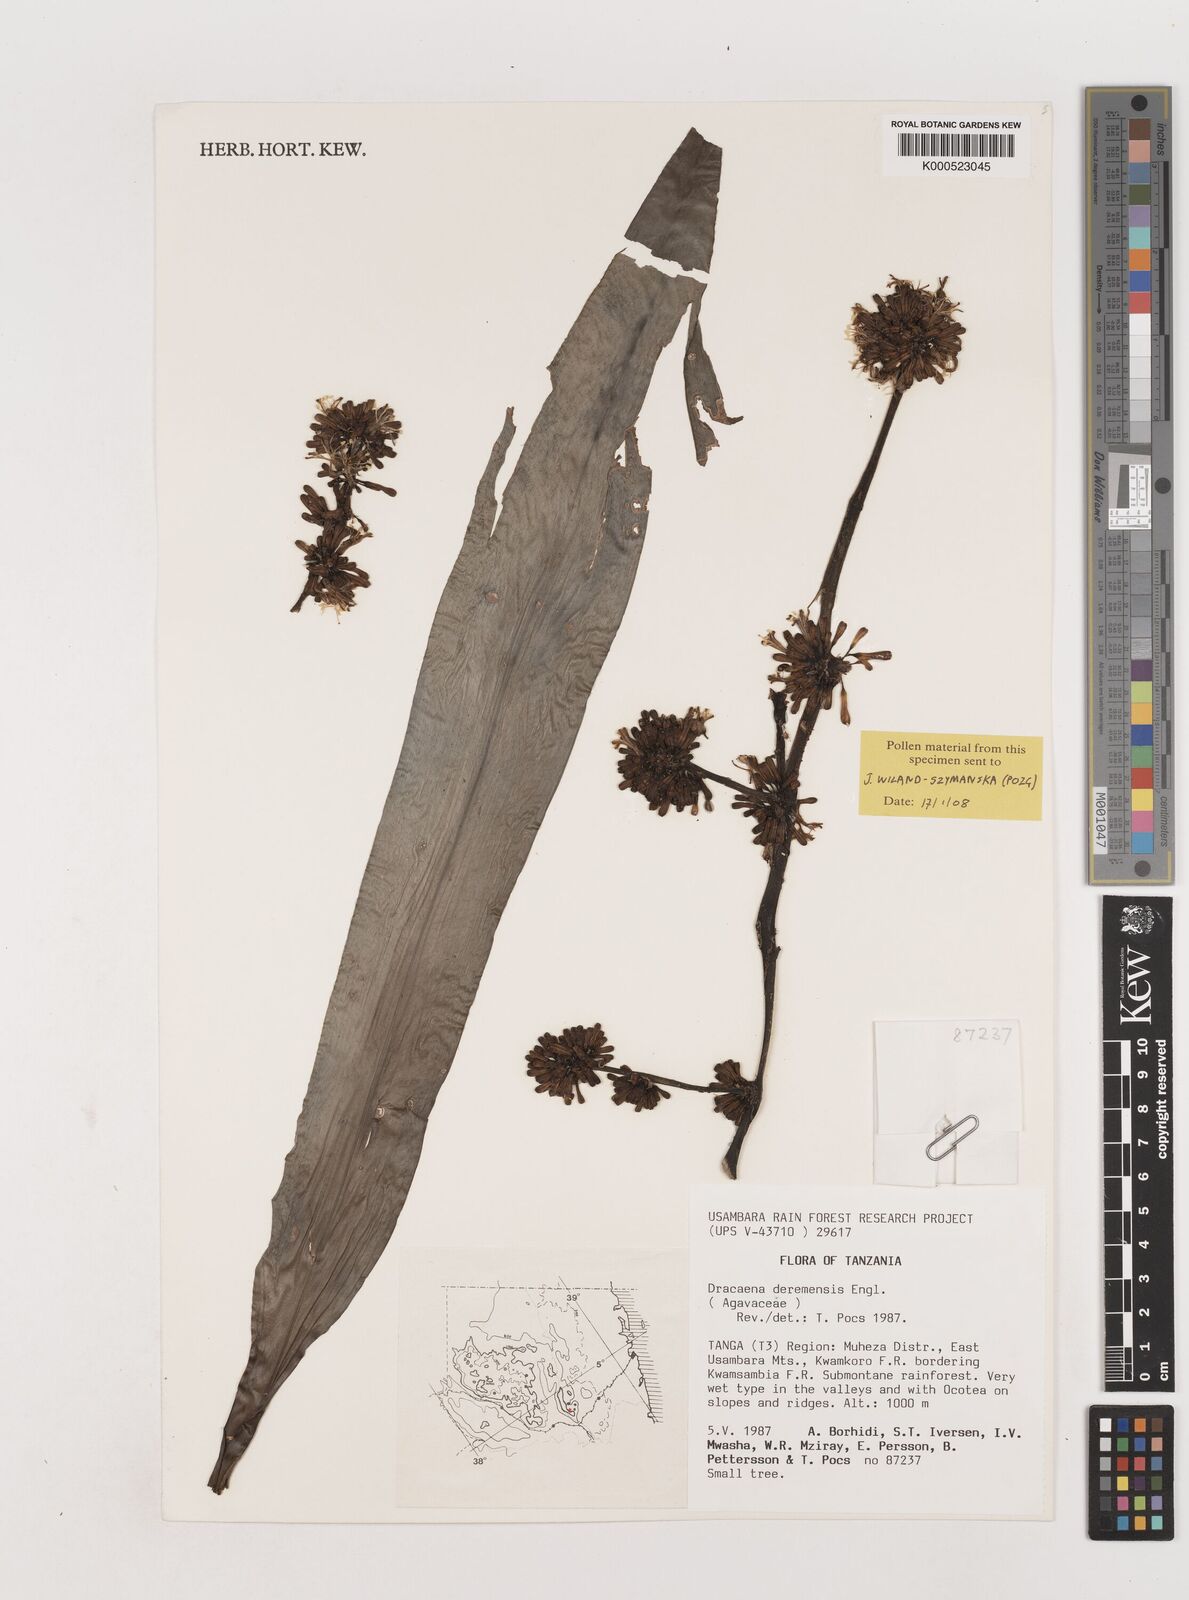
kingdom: Plantae
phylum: Tracheophyta
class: Liliopsida
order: Asparagales
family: Asparagaceae
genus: Dracaena
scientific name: Dracaena fragrans
